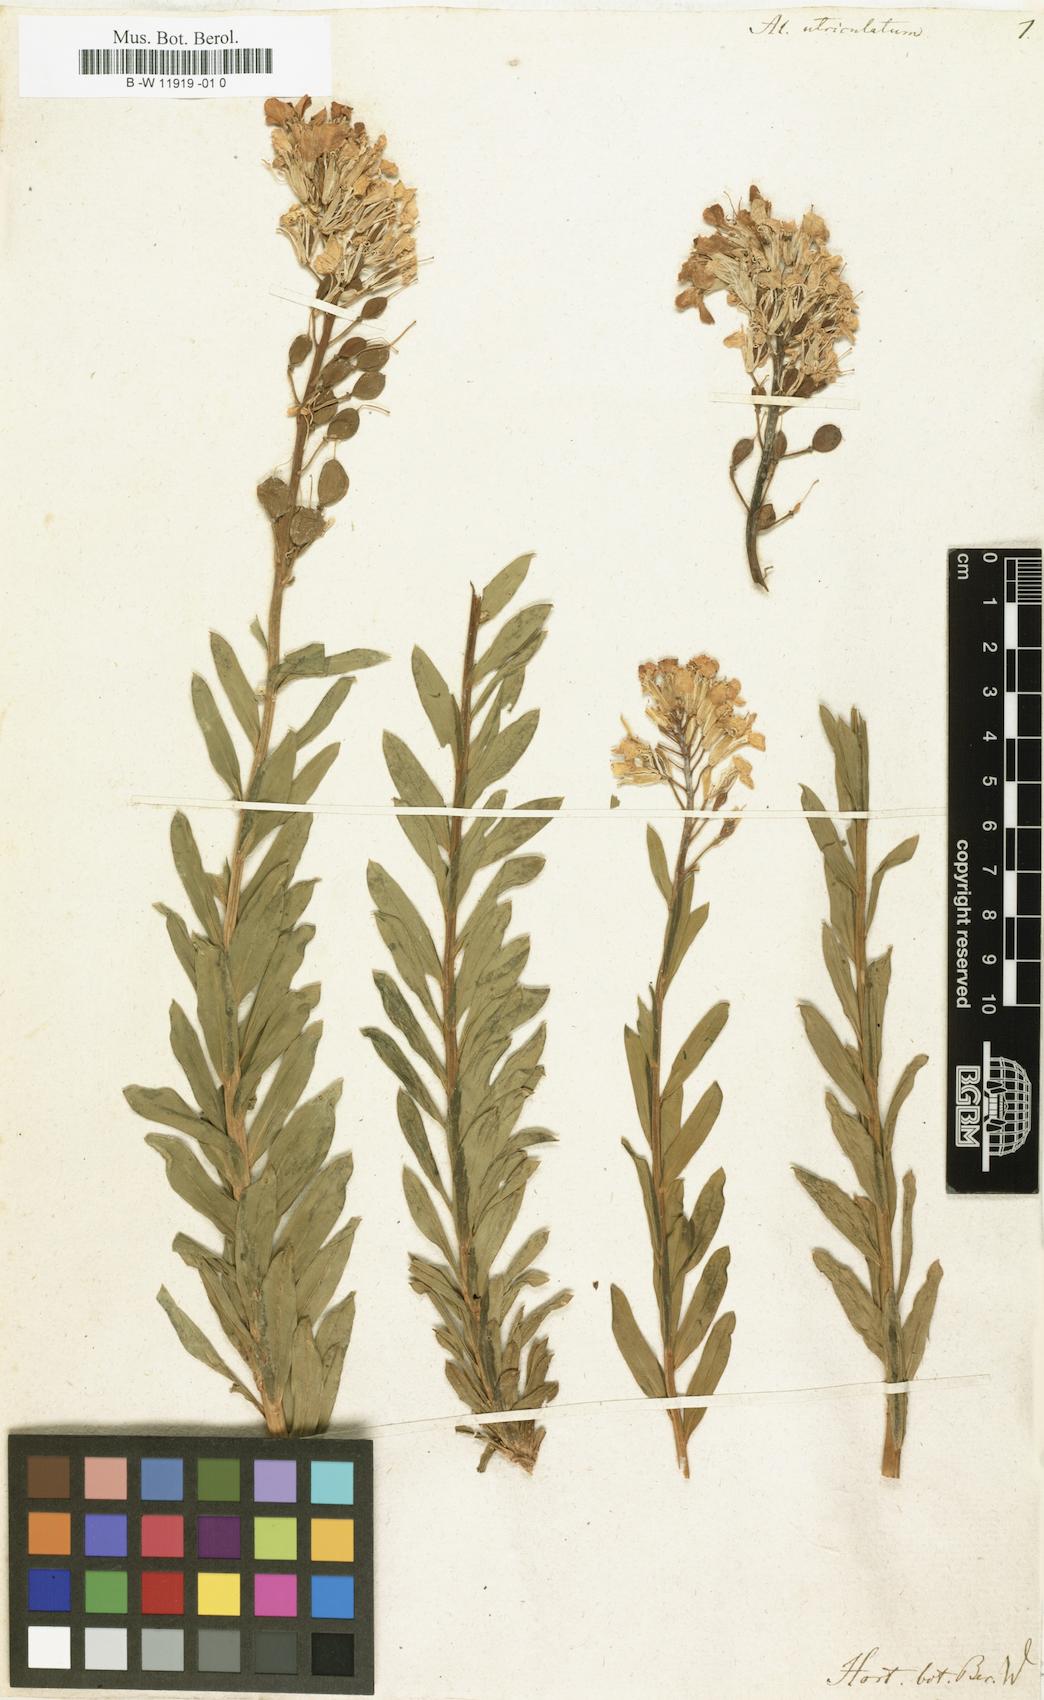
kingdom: Plantae
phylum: Tracheophyta
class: Magnoliopsida
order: Brassicales
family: Brassicaceae
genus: Alyssoides
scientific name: Alyssoides utriculata
